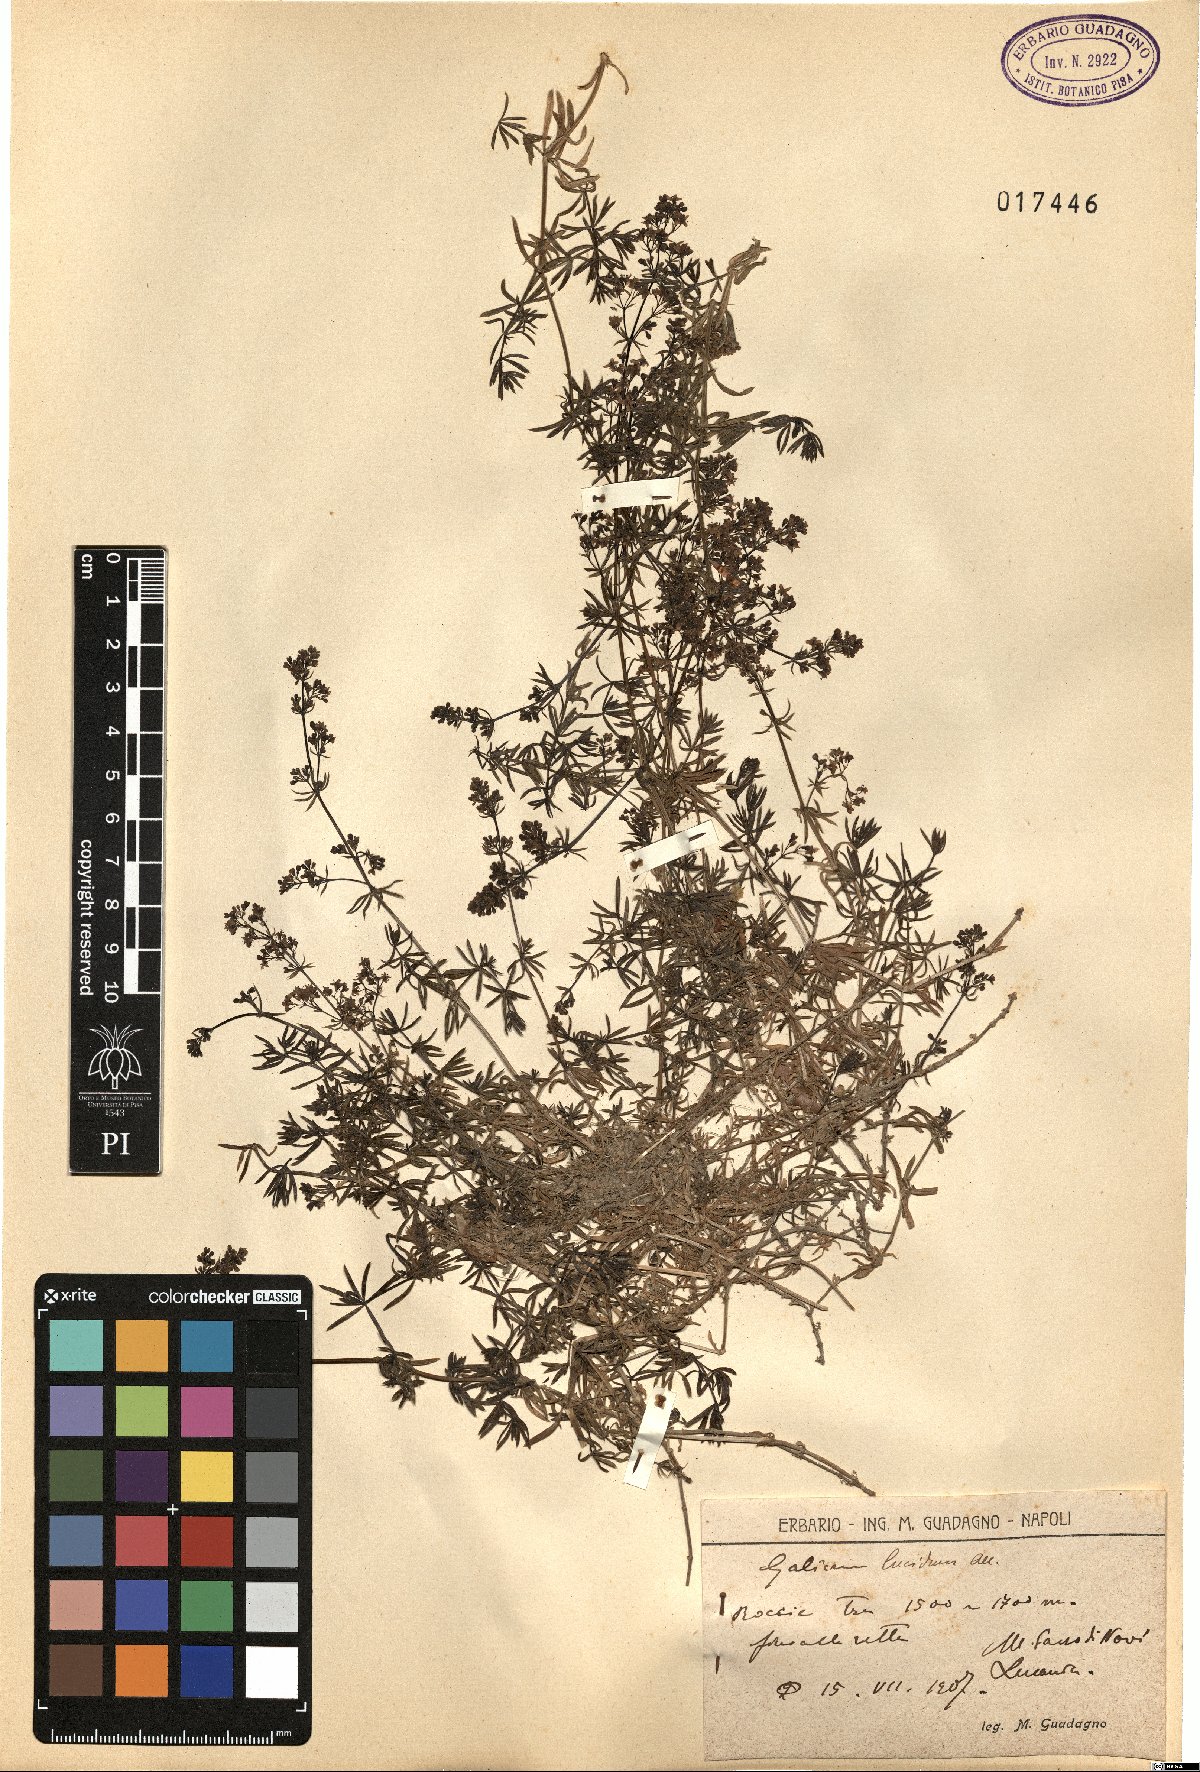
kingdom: Plantae
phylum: Tracheophyta
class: Magnoliopsida
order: Gentianales
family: Rubiaceae
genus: Galium
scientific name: Galium lucidum
